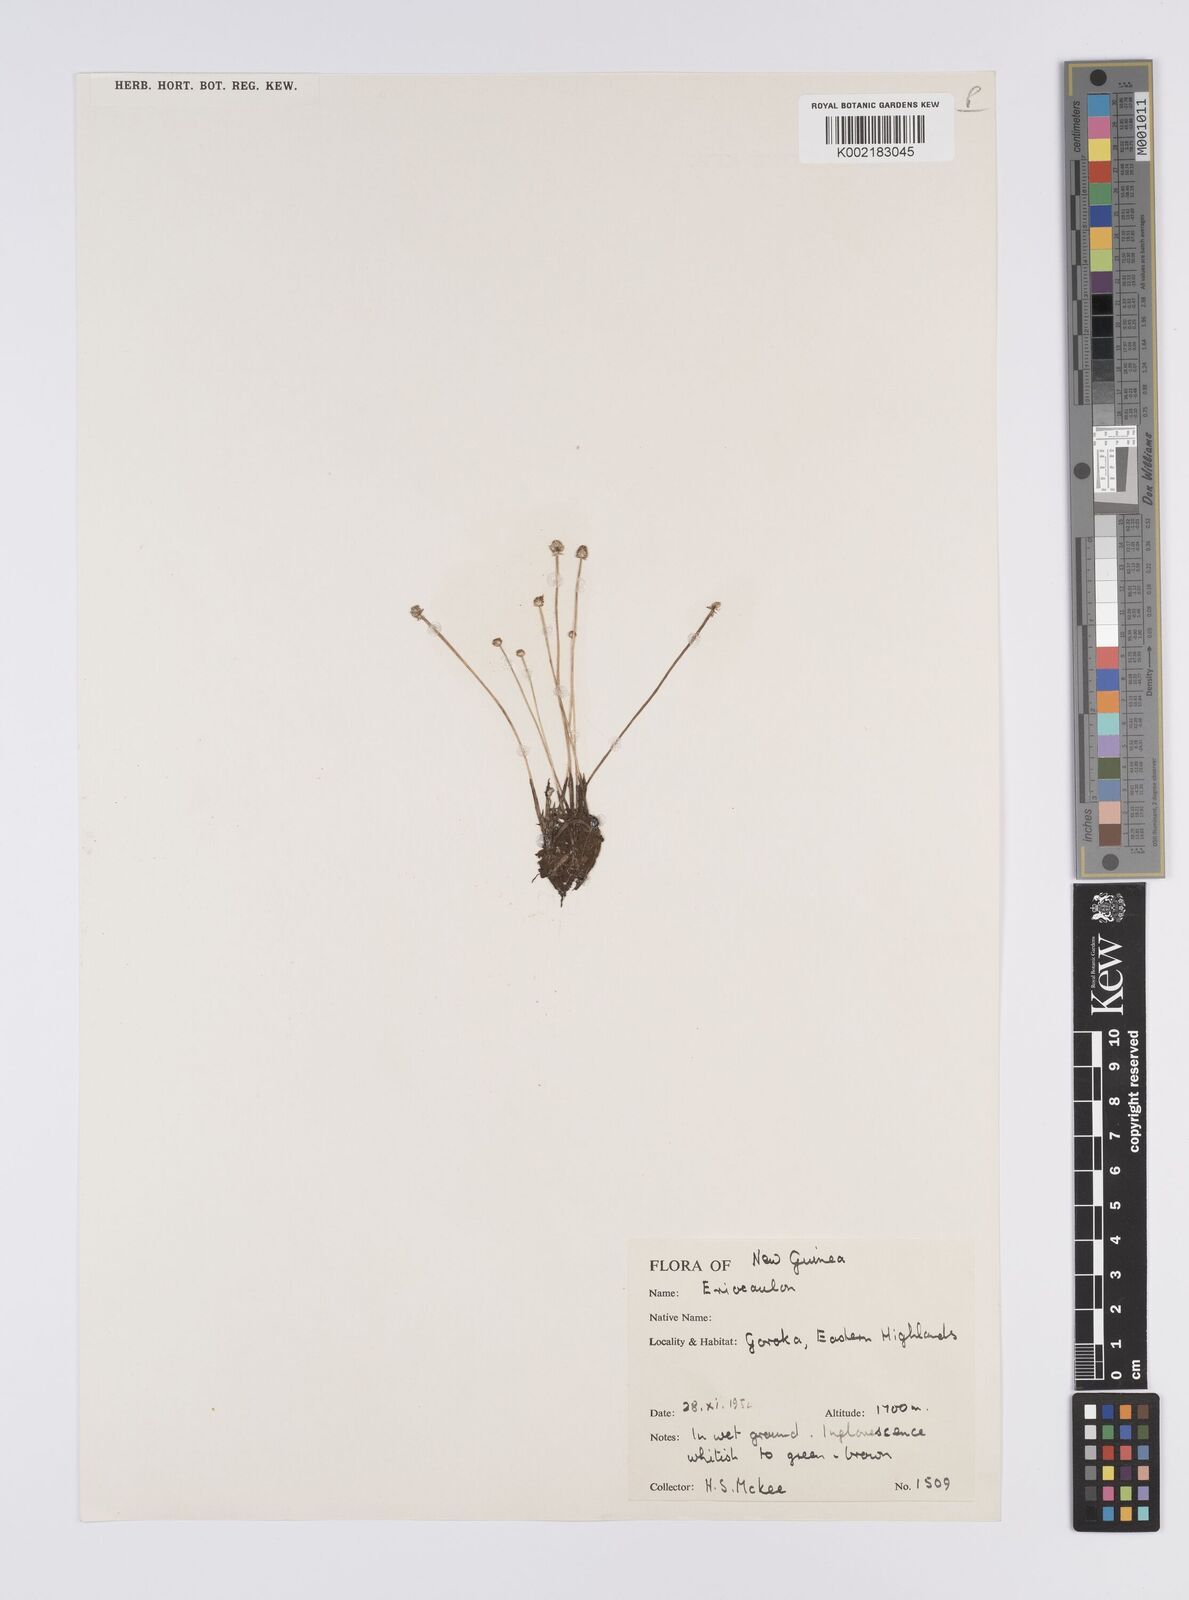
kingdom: Plantae
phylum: Tracheophyta
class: Liliopsida
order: Poales
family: Eriocaulaceae
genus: Eriocaulon
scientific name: Eriocaulon
